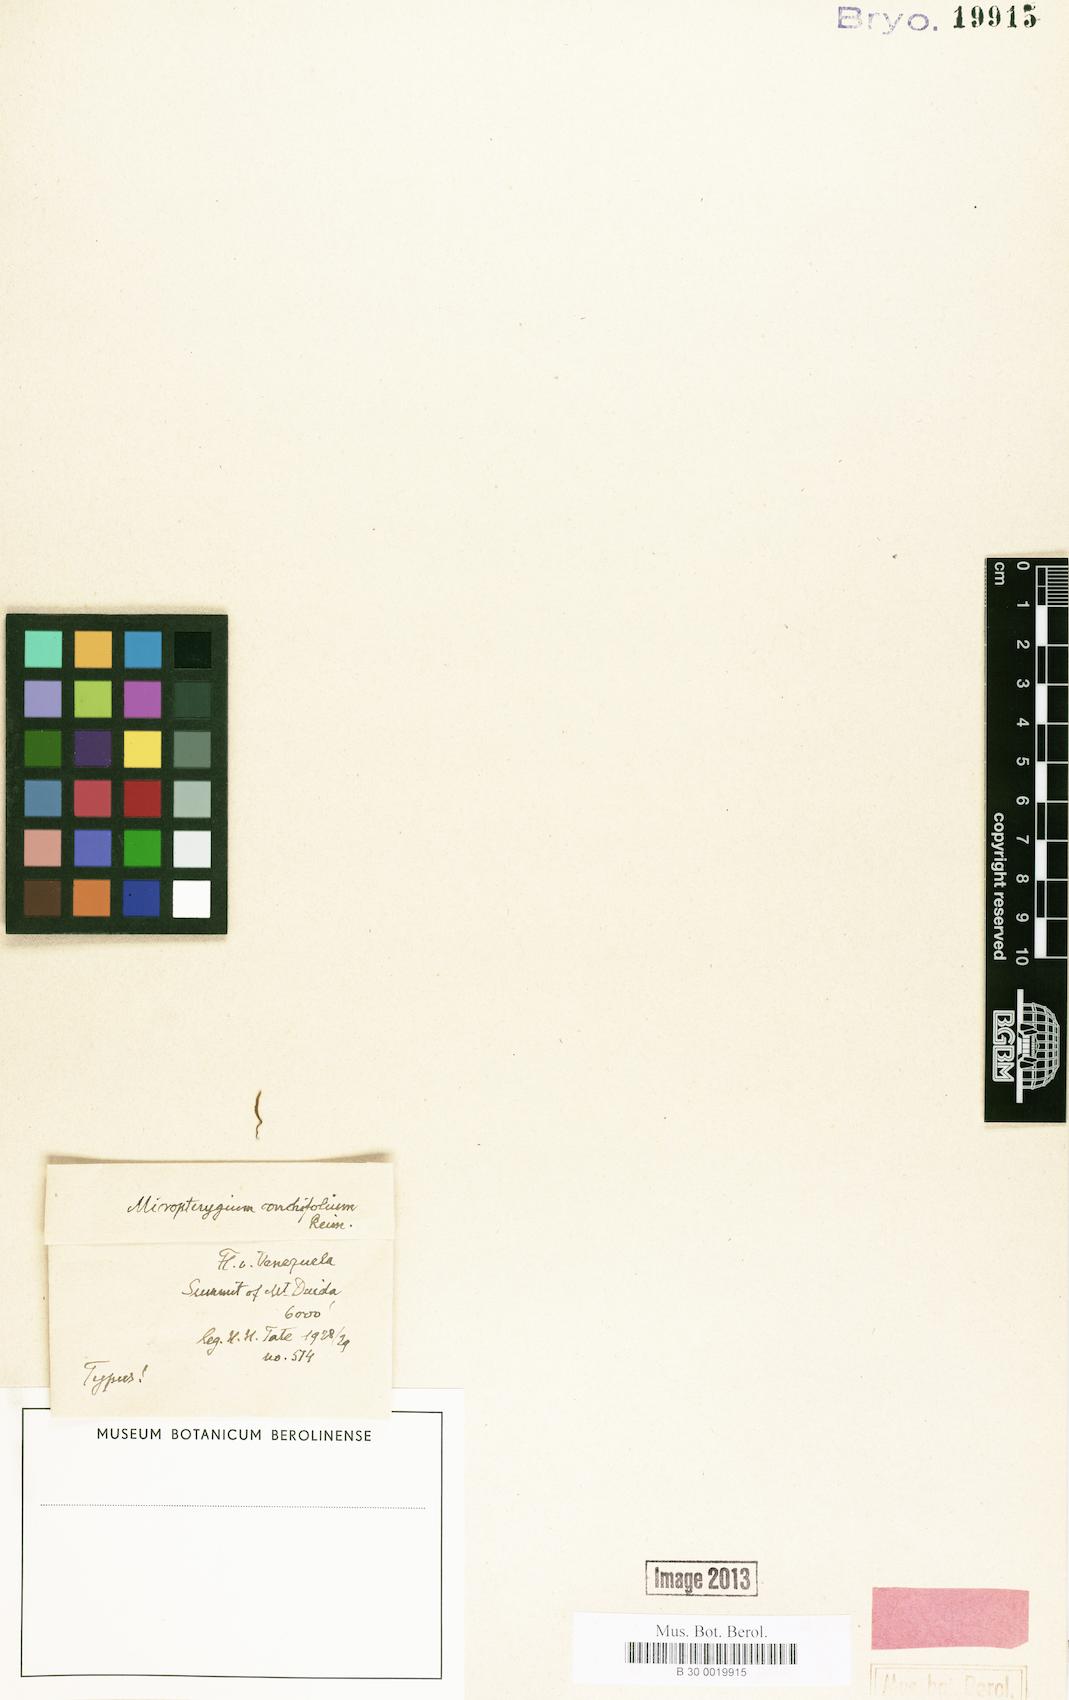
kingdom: Plantae
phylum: Marchantiophyta
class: Jungermanniopsida
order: Jungermanniales
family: Lepidoziaceae
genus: Micropterygium
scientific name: Micropterygium conchifolium
